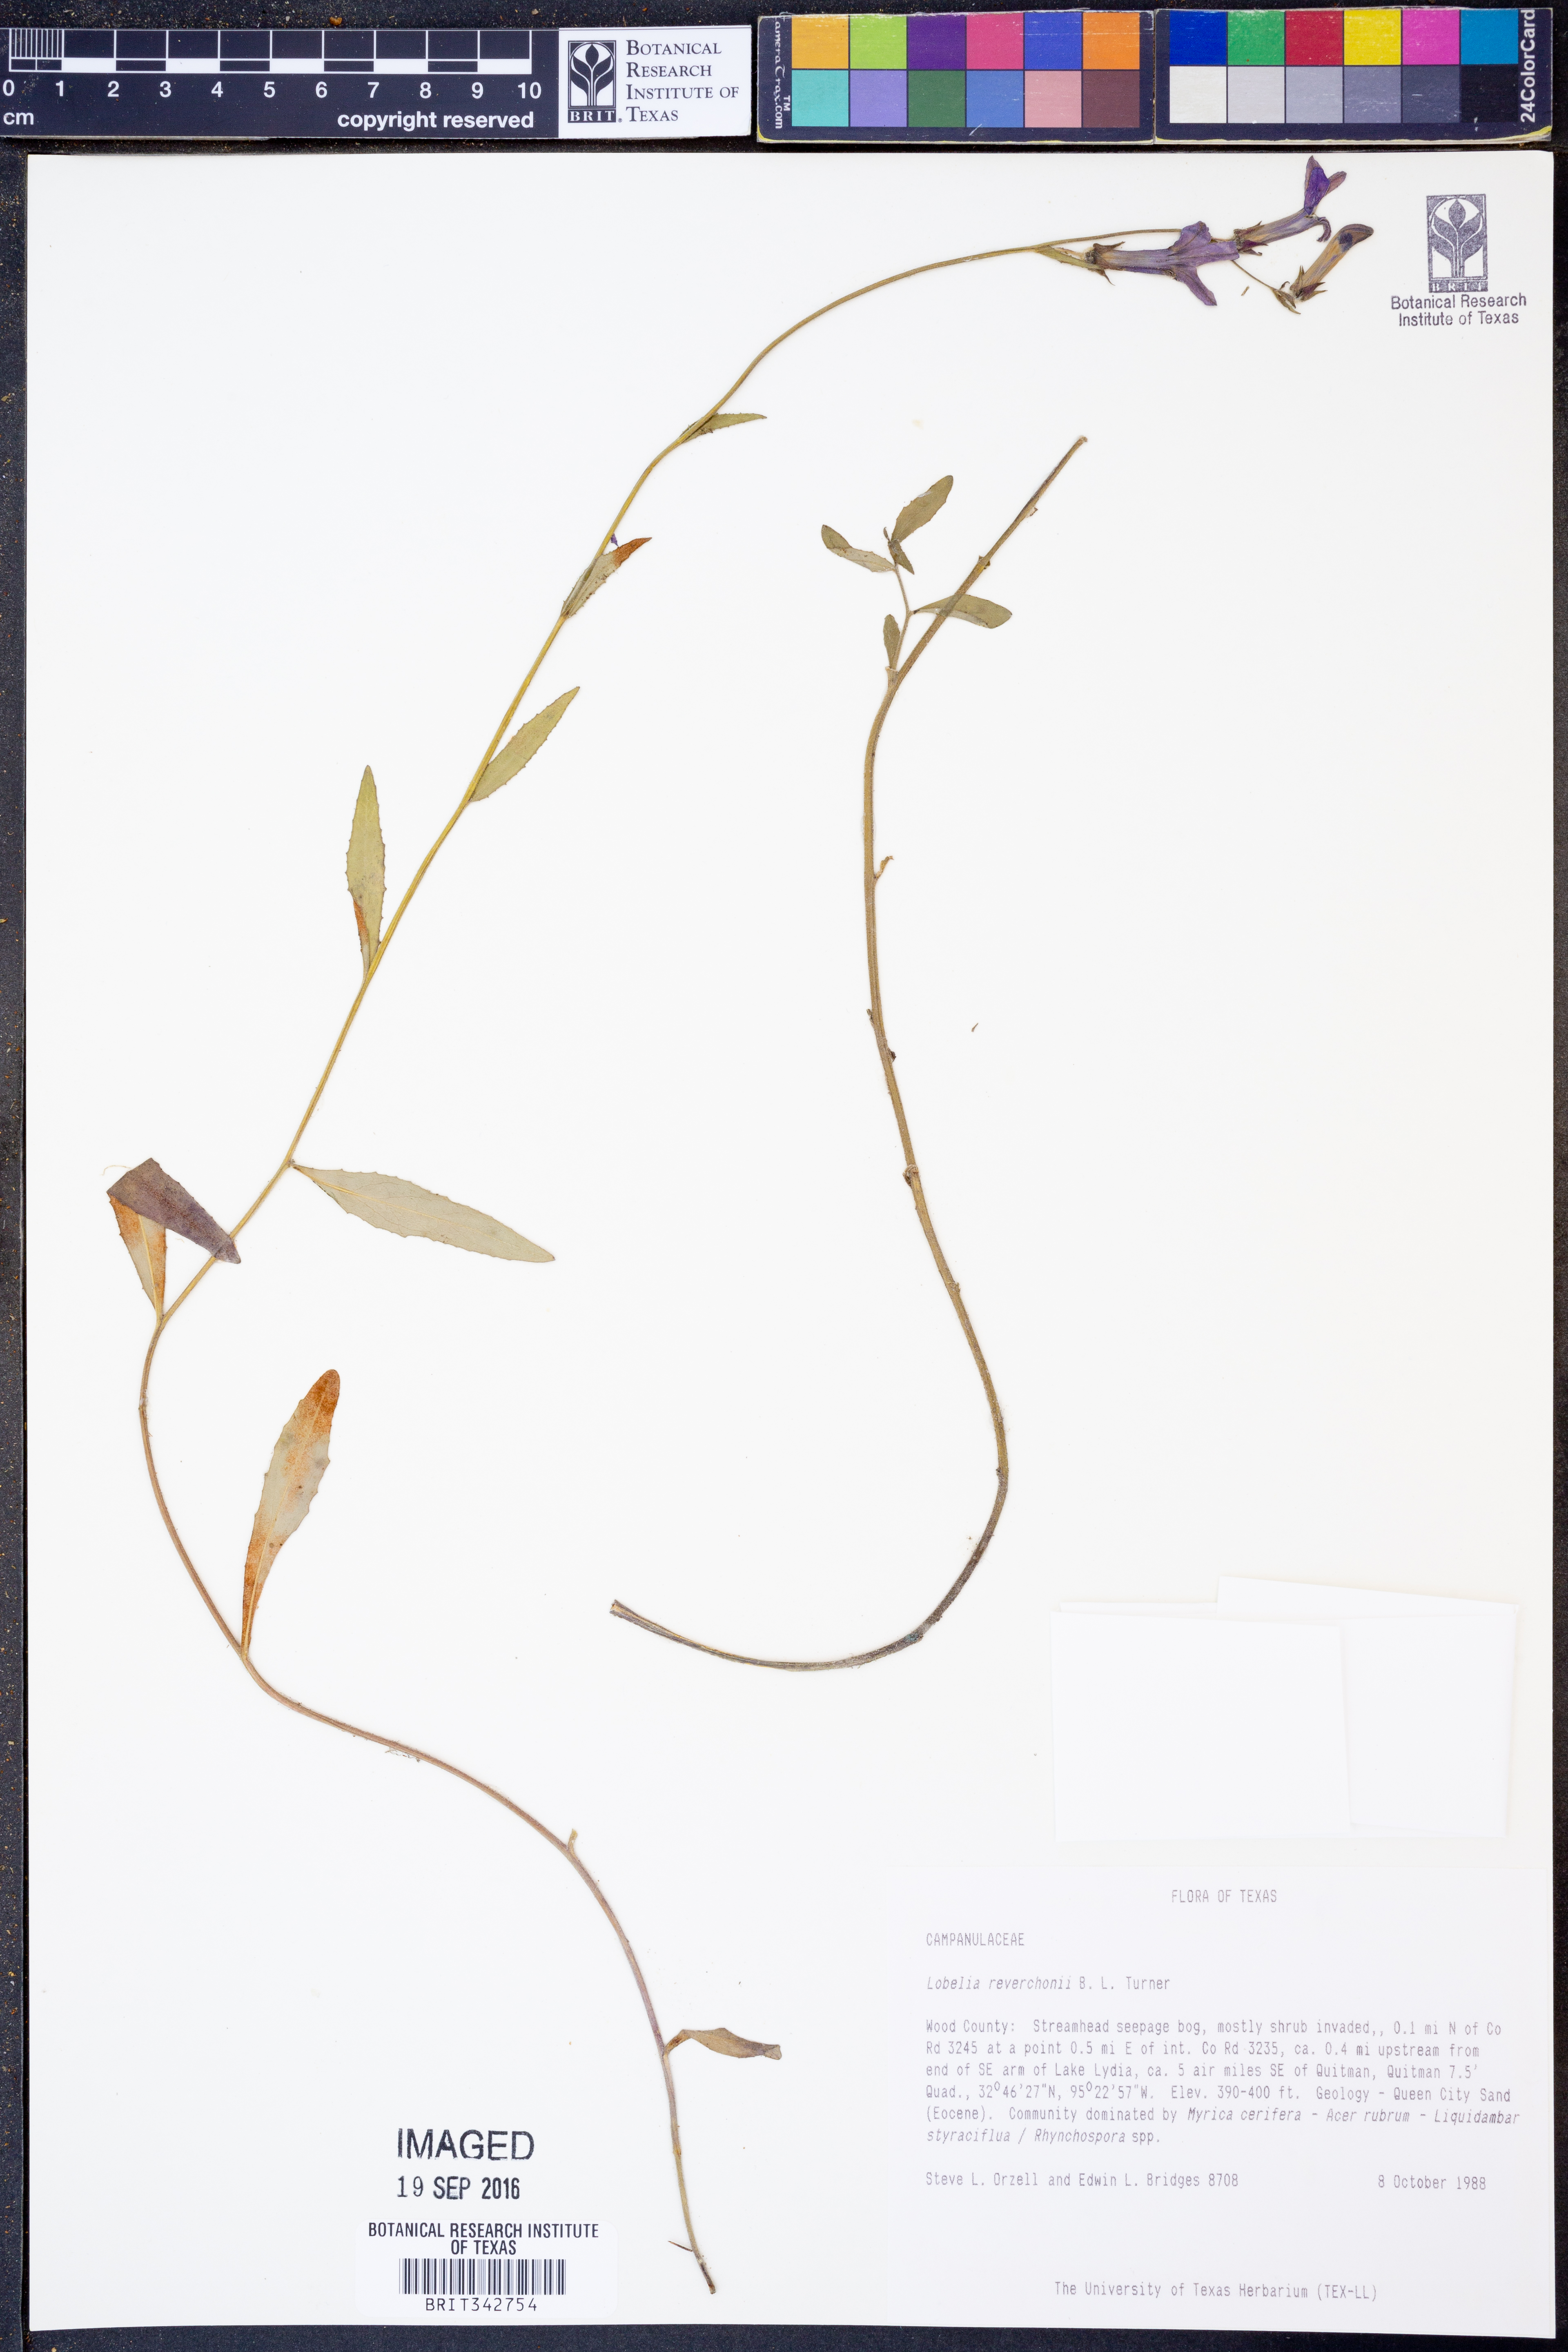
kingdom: Plantae
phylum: Tracheophyta
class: Magnoliopsida
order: Asterales
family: Campanulaceae
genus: Lobelia
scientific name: Lobelia reverchonii
